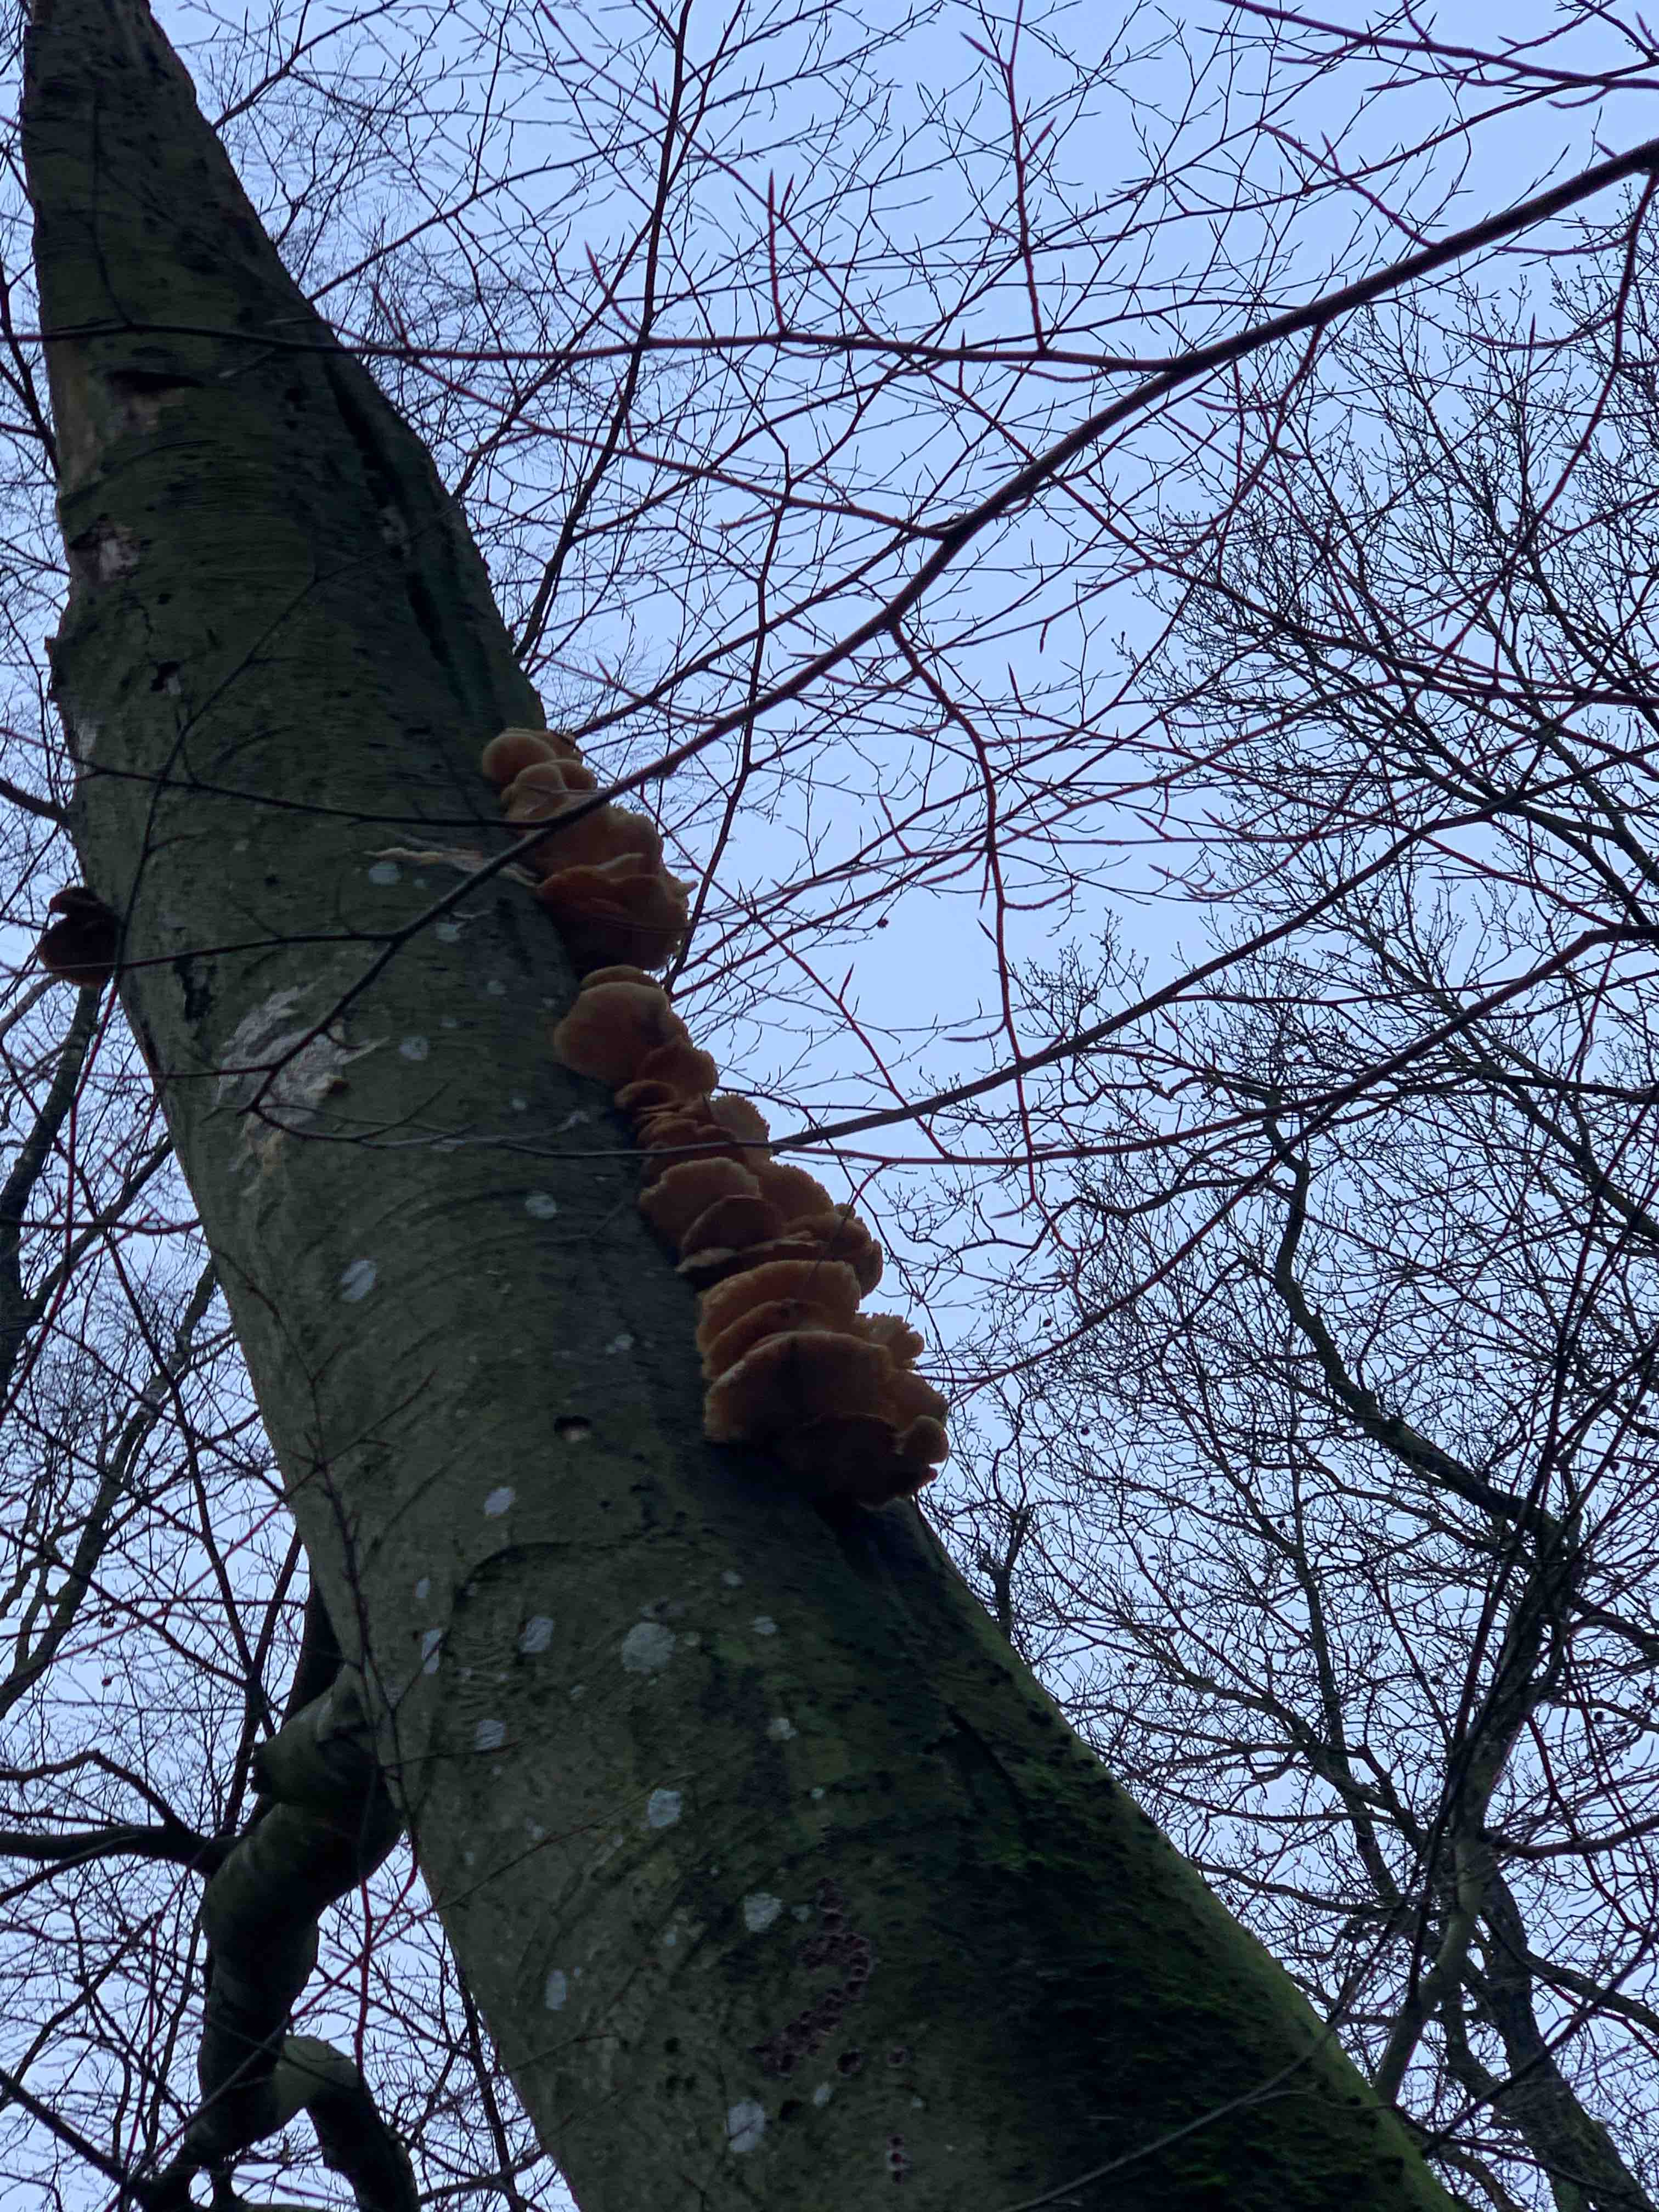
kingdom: Fungi
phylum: Basidiomycota
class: Agaricomycetes
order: Agaricales
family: Pleurotaceae
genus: Pleurotus
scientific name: Pleurotus ostreatus
